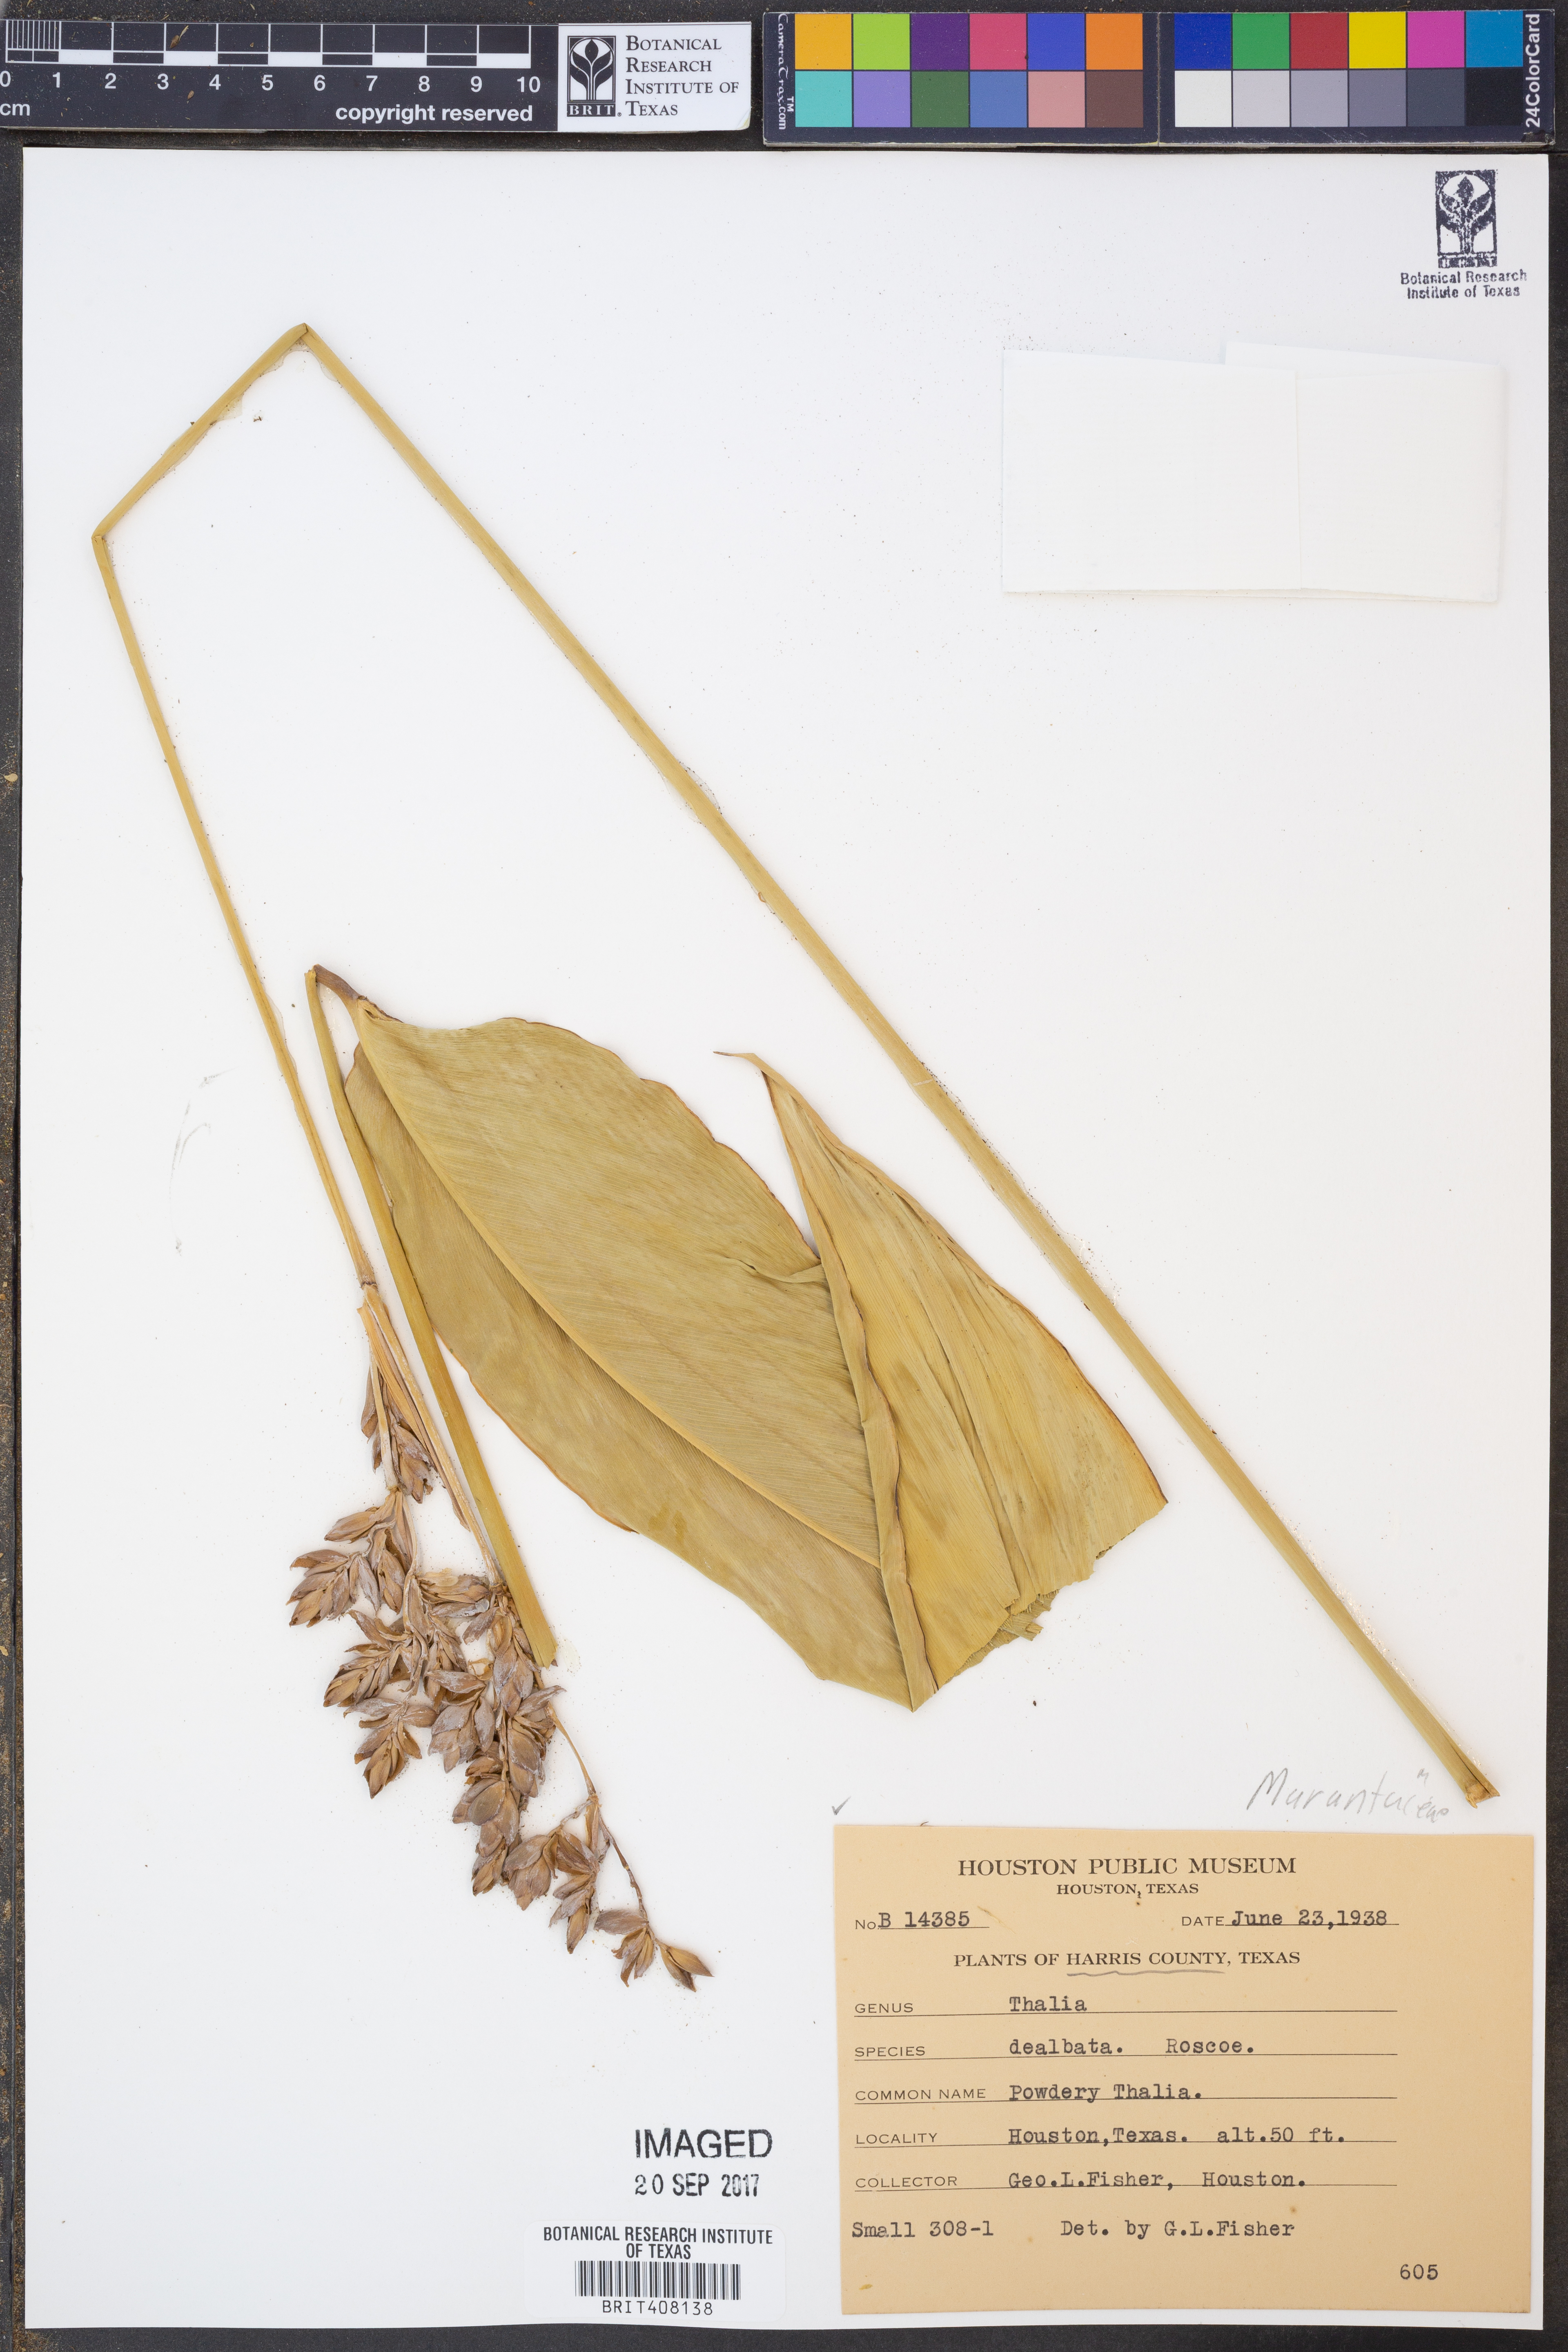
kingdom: Plantae
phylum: Tracheophyta
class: Liliopsida
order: Zingiberales
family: Marantaceae
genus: Thalia
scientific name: Thalia dealbata
